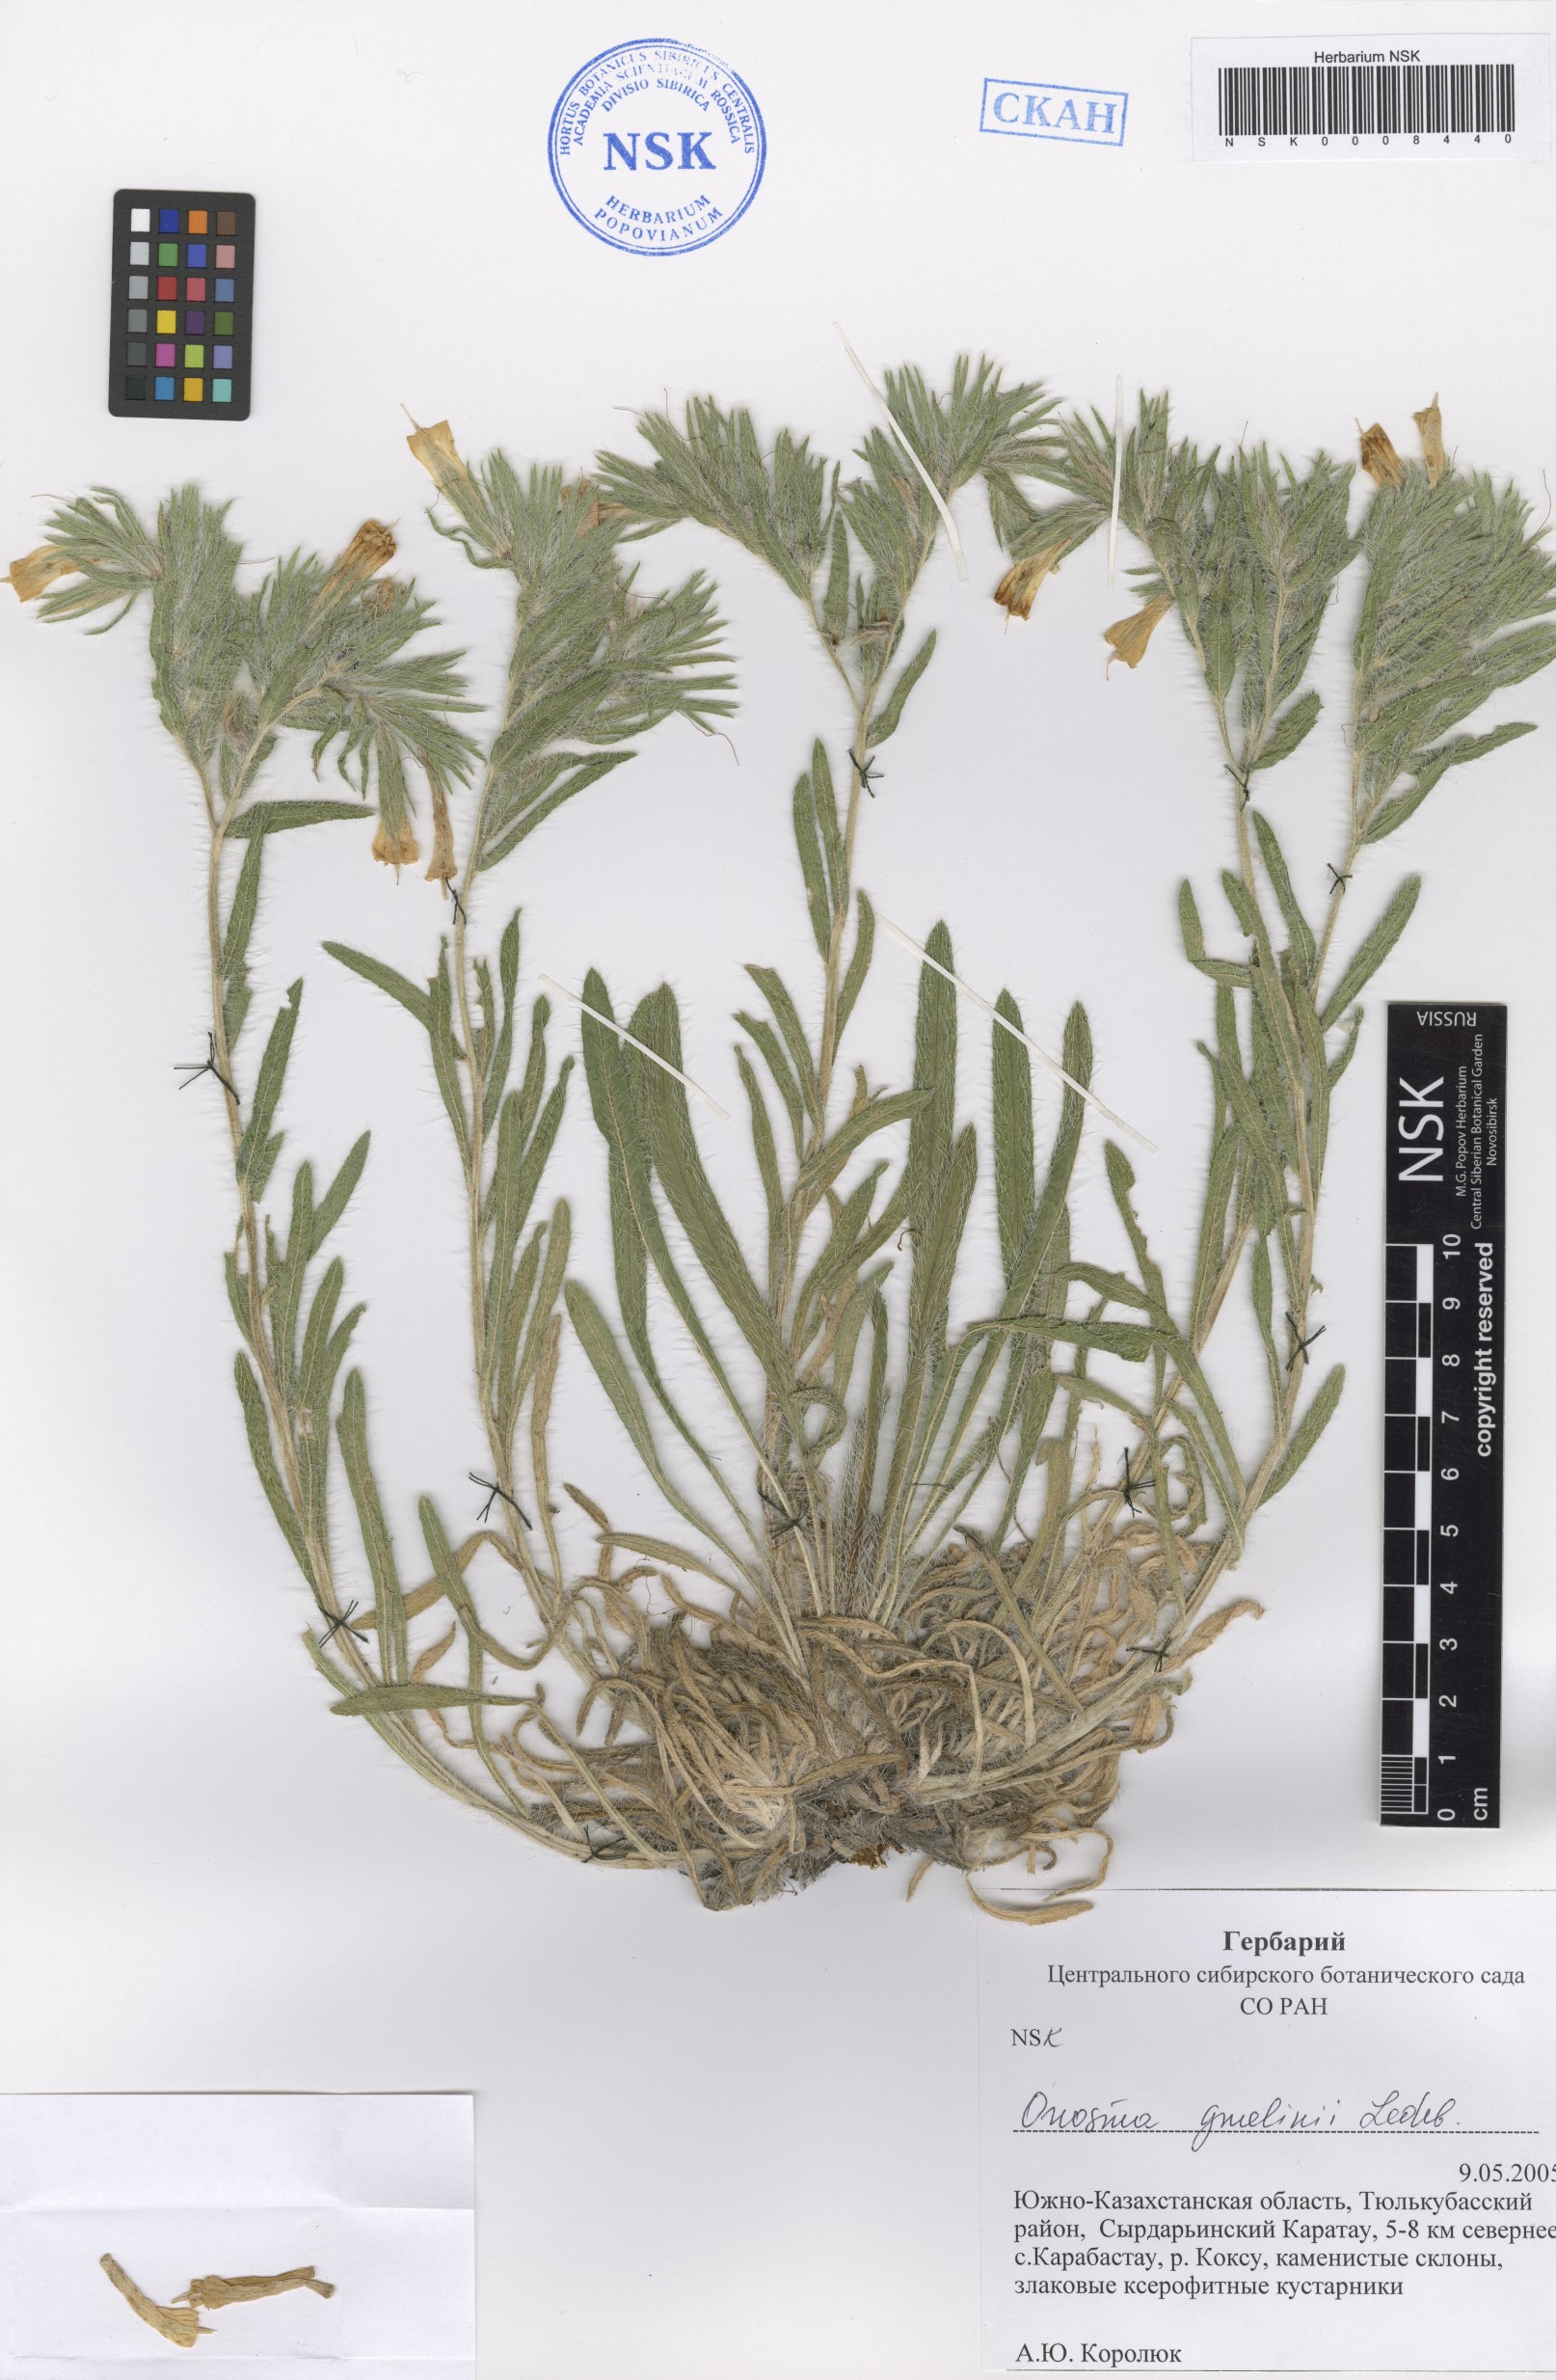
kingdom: Plantae
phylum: Tracheophyta
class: Magnoliopsida
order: Boraginales
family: Boraginaceae
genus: Onosma
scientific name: Onosma gmelinii
